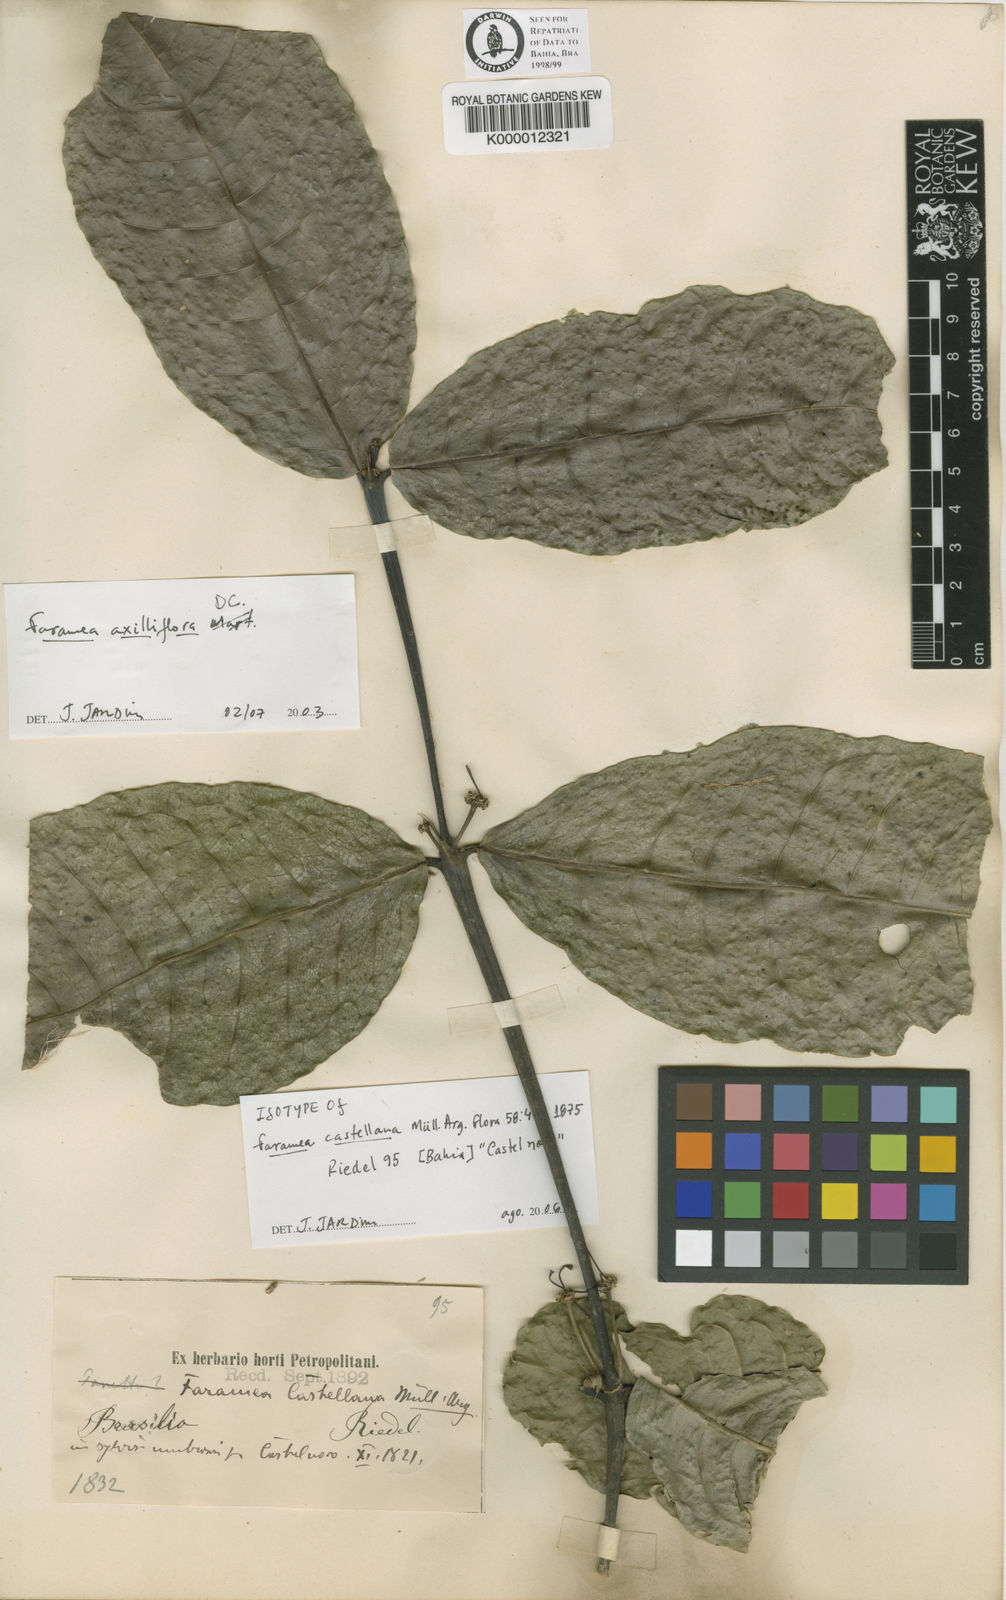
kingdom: Plantae
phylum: Tracheophyta
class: Magnoliopsida
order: Gentianales
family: Rubiaceae
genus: Faramea
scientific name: Faramea
